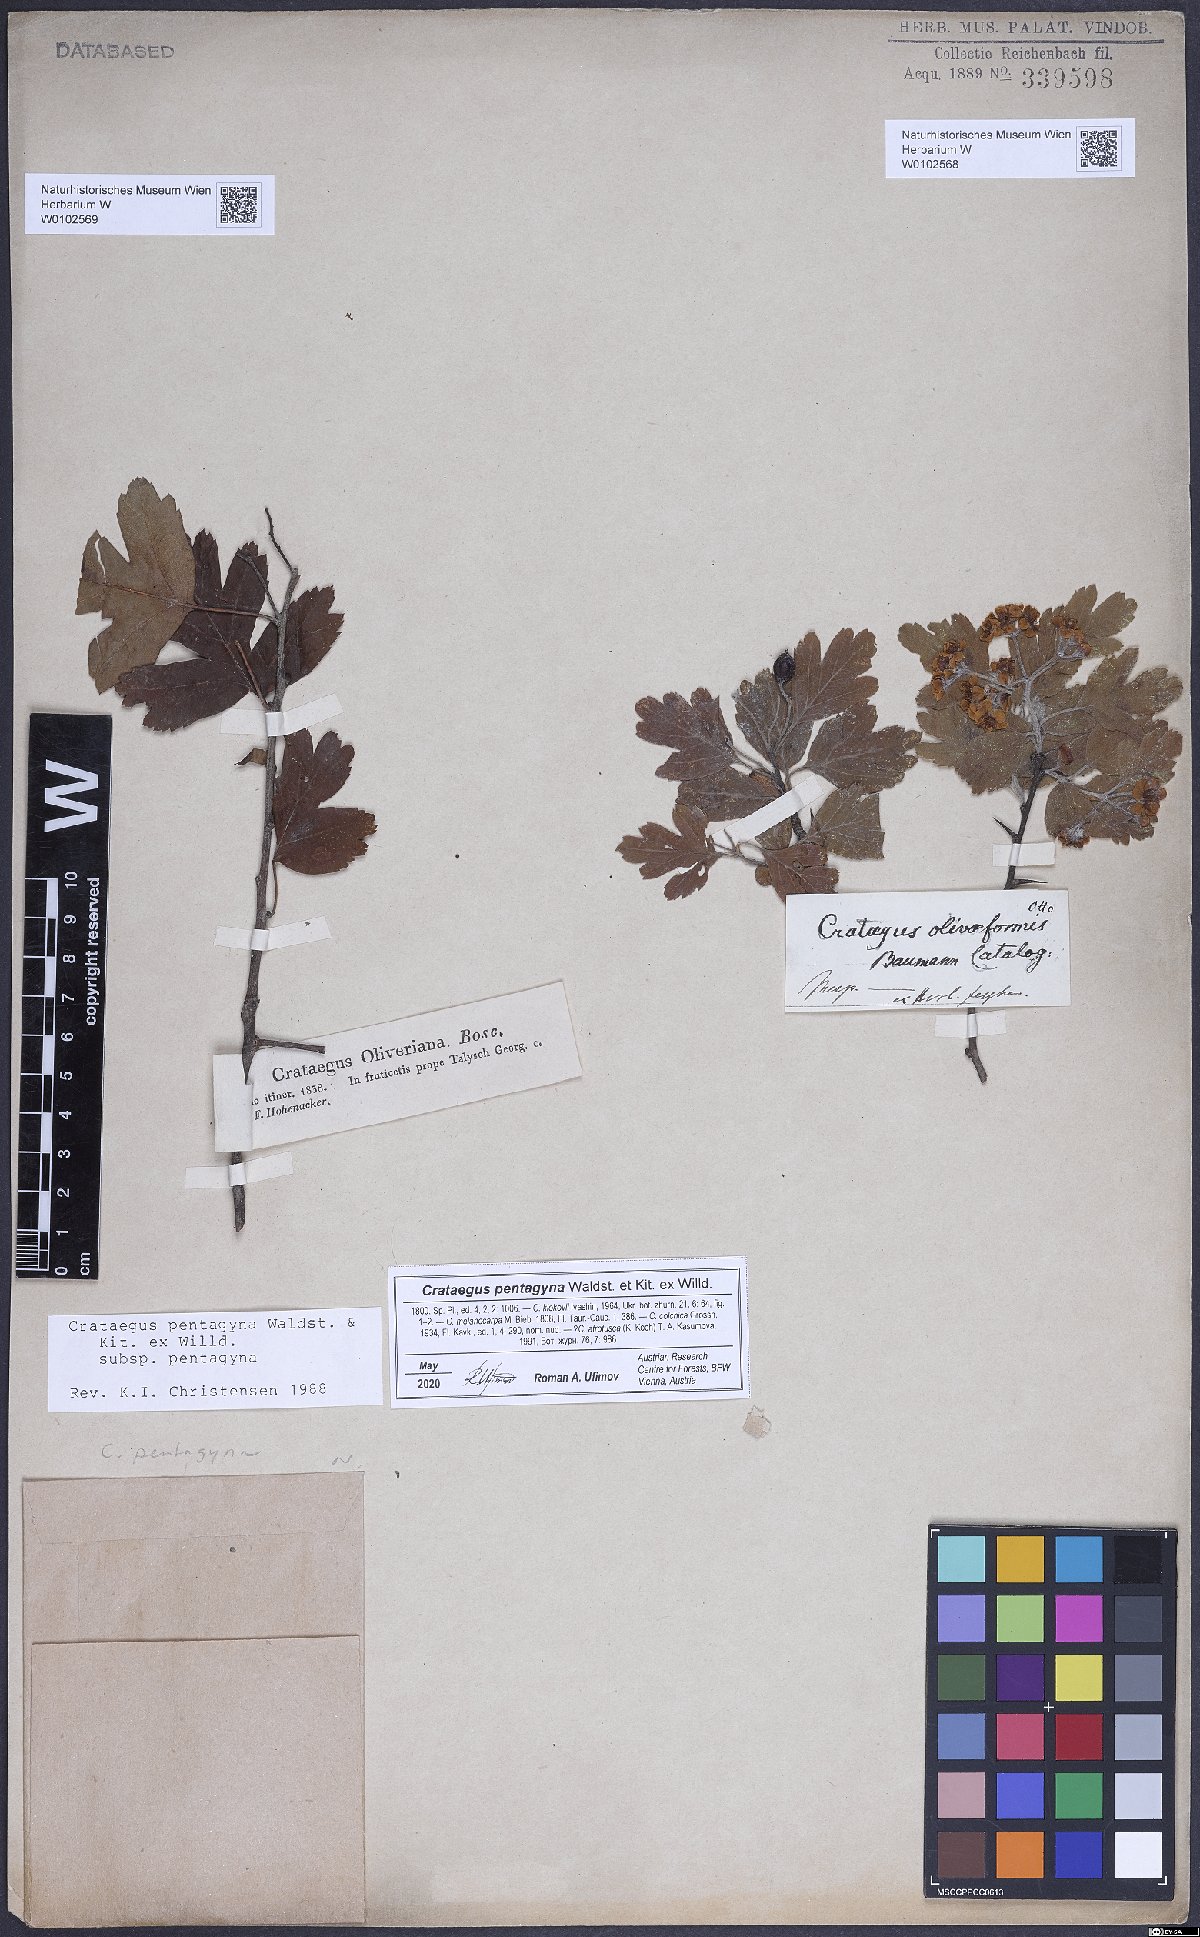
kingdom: Plantae
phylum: Tracheophyta
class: Magnoliopsida
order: Rosales
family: Rosaceae
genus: Crataegus
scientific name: Crataegus pentagyna
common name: Small-flowered black hawthorn
